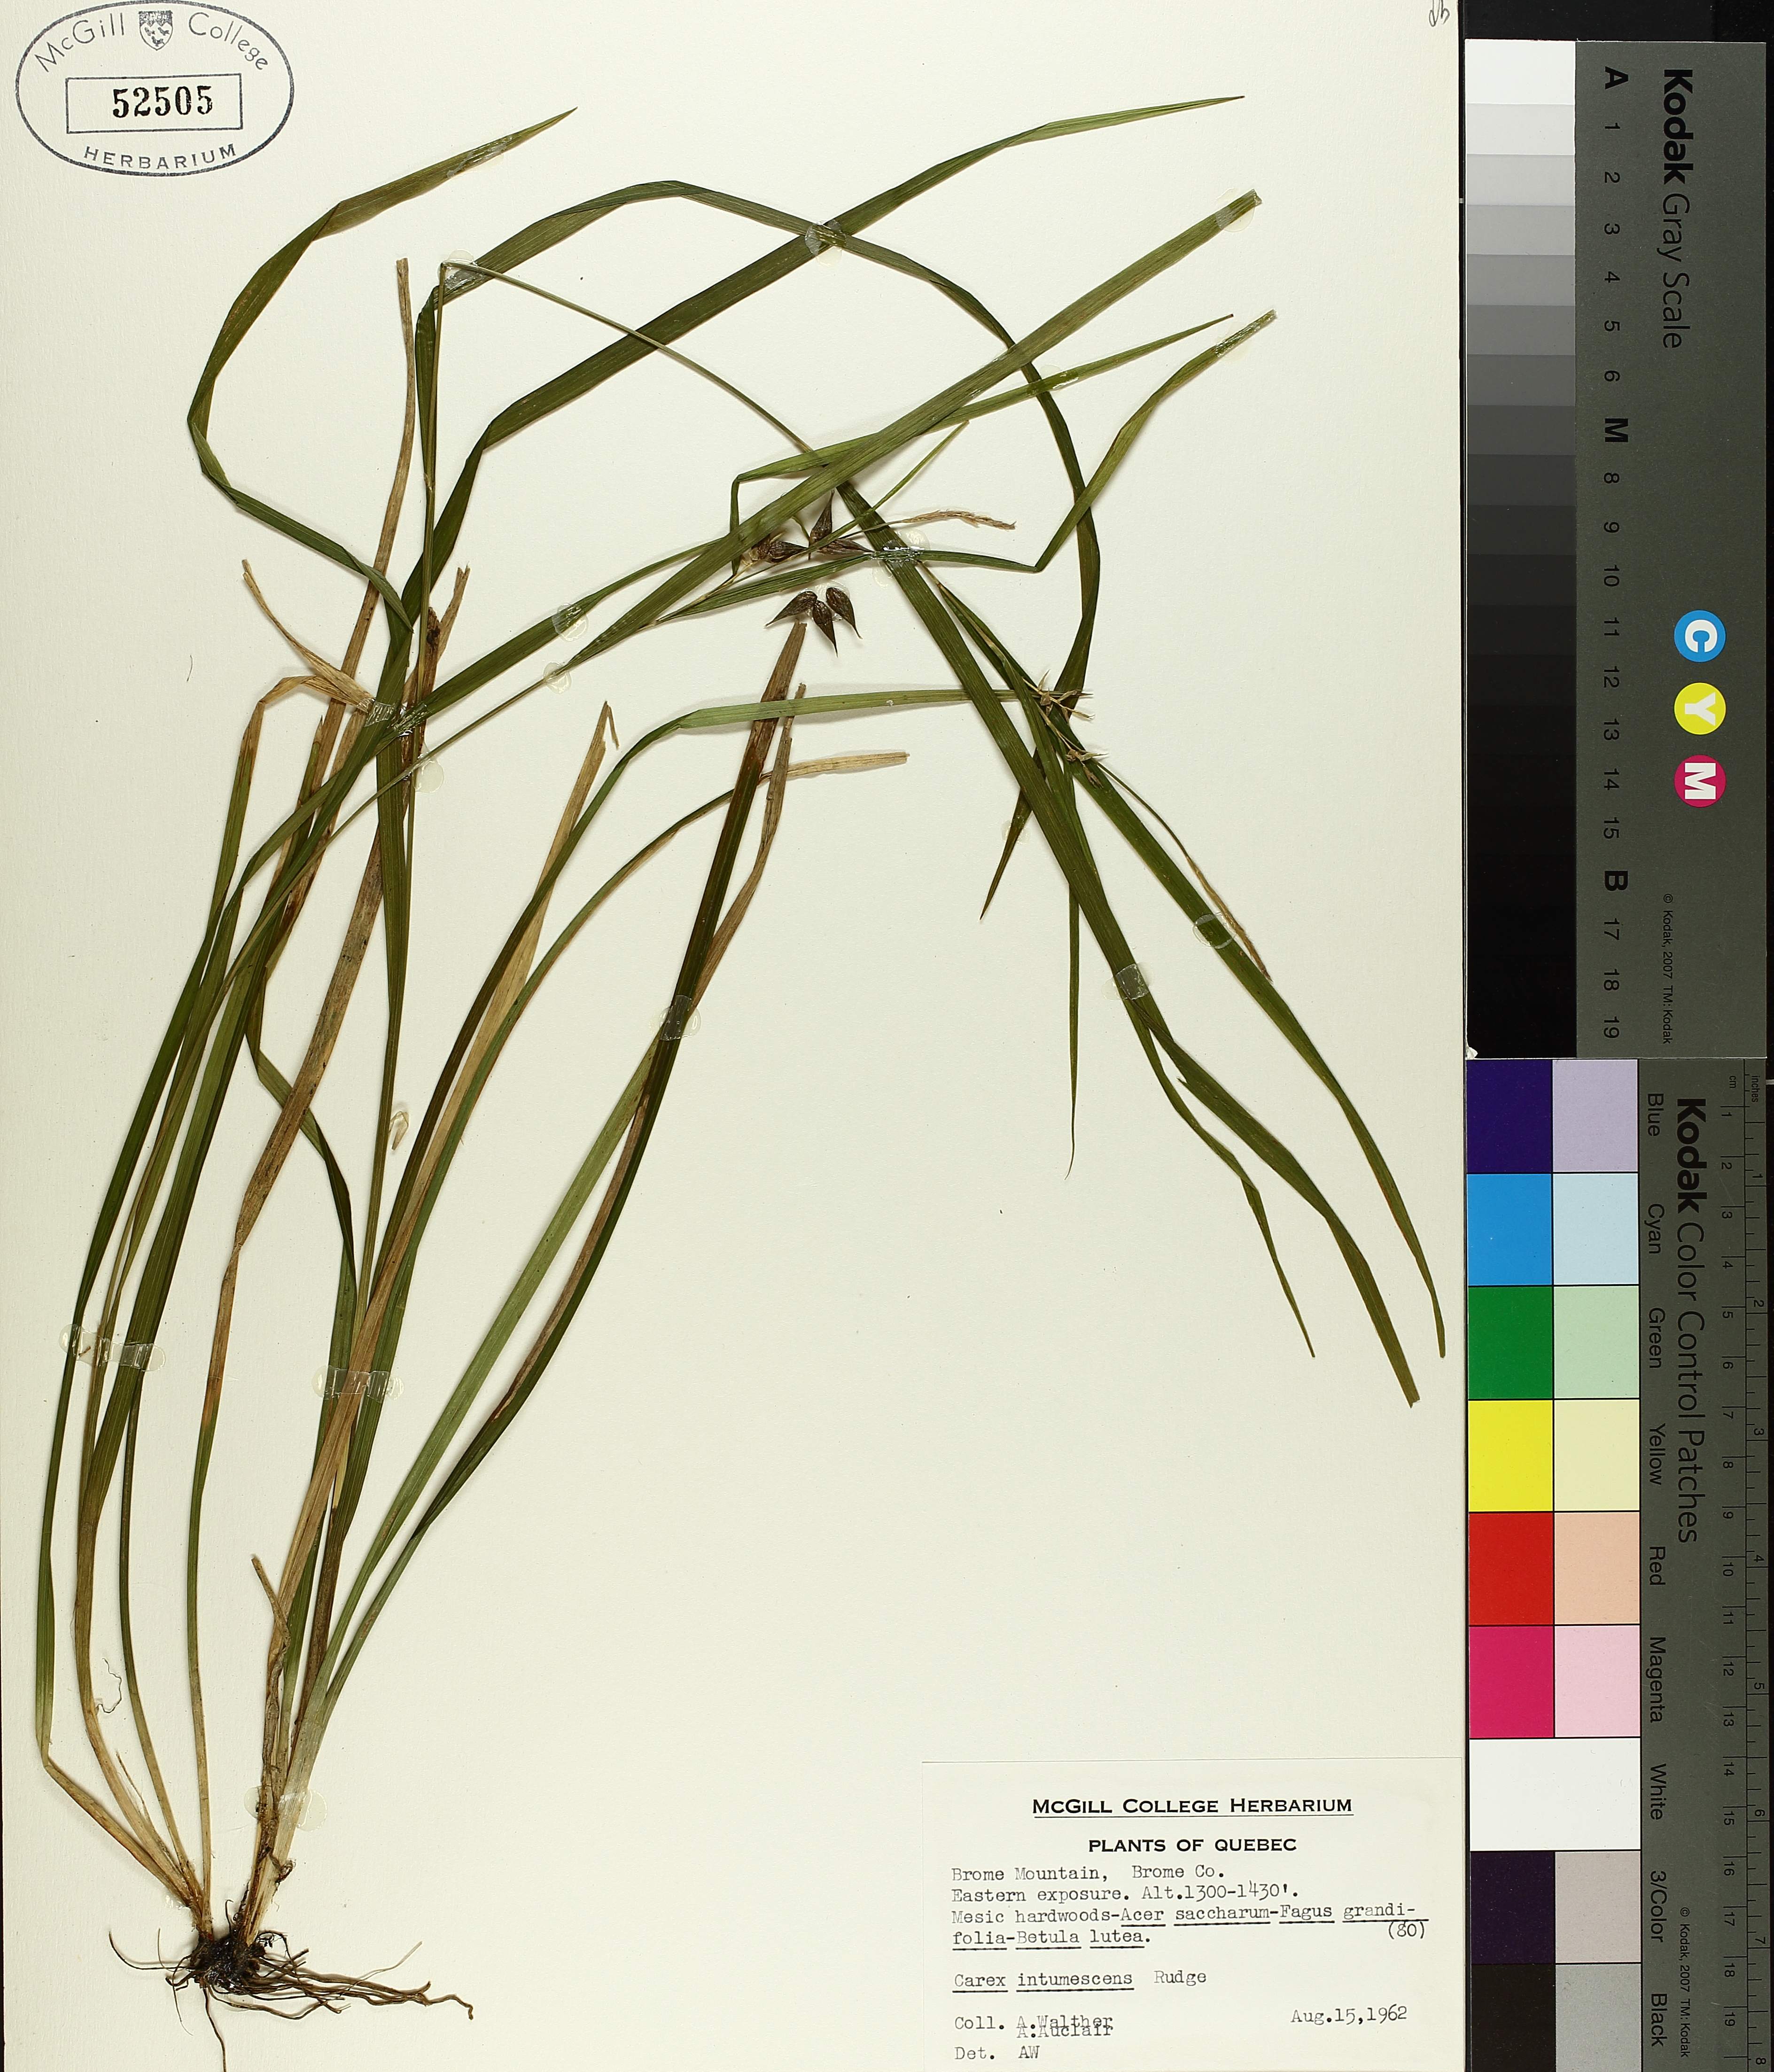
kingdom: Plantae
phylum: Tracheophyta
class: Liliopsida
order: Poales
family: Cyperaceae
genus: Carex
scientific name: Carex intumescens
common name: Greater bladder sedge
